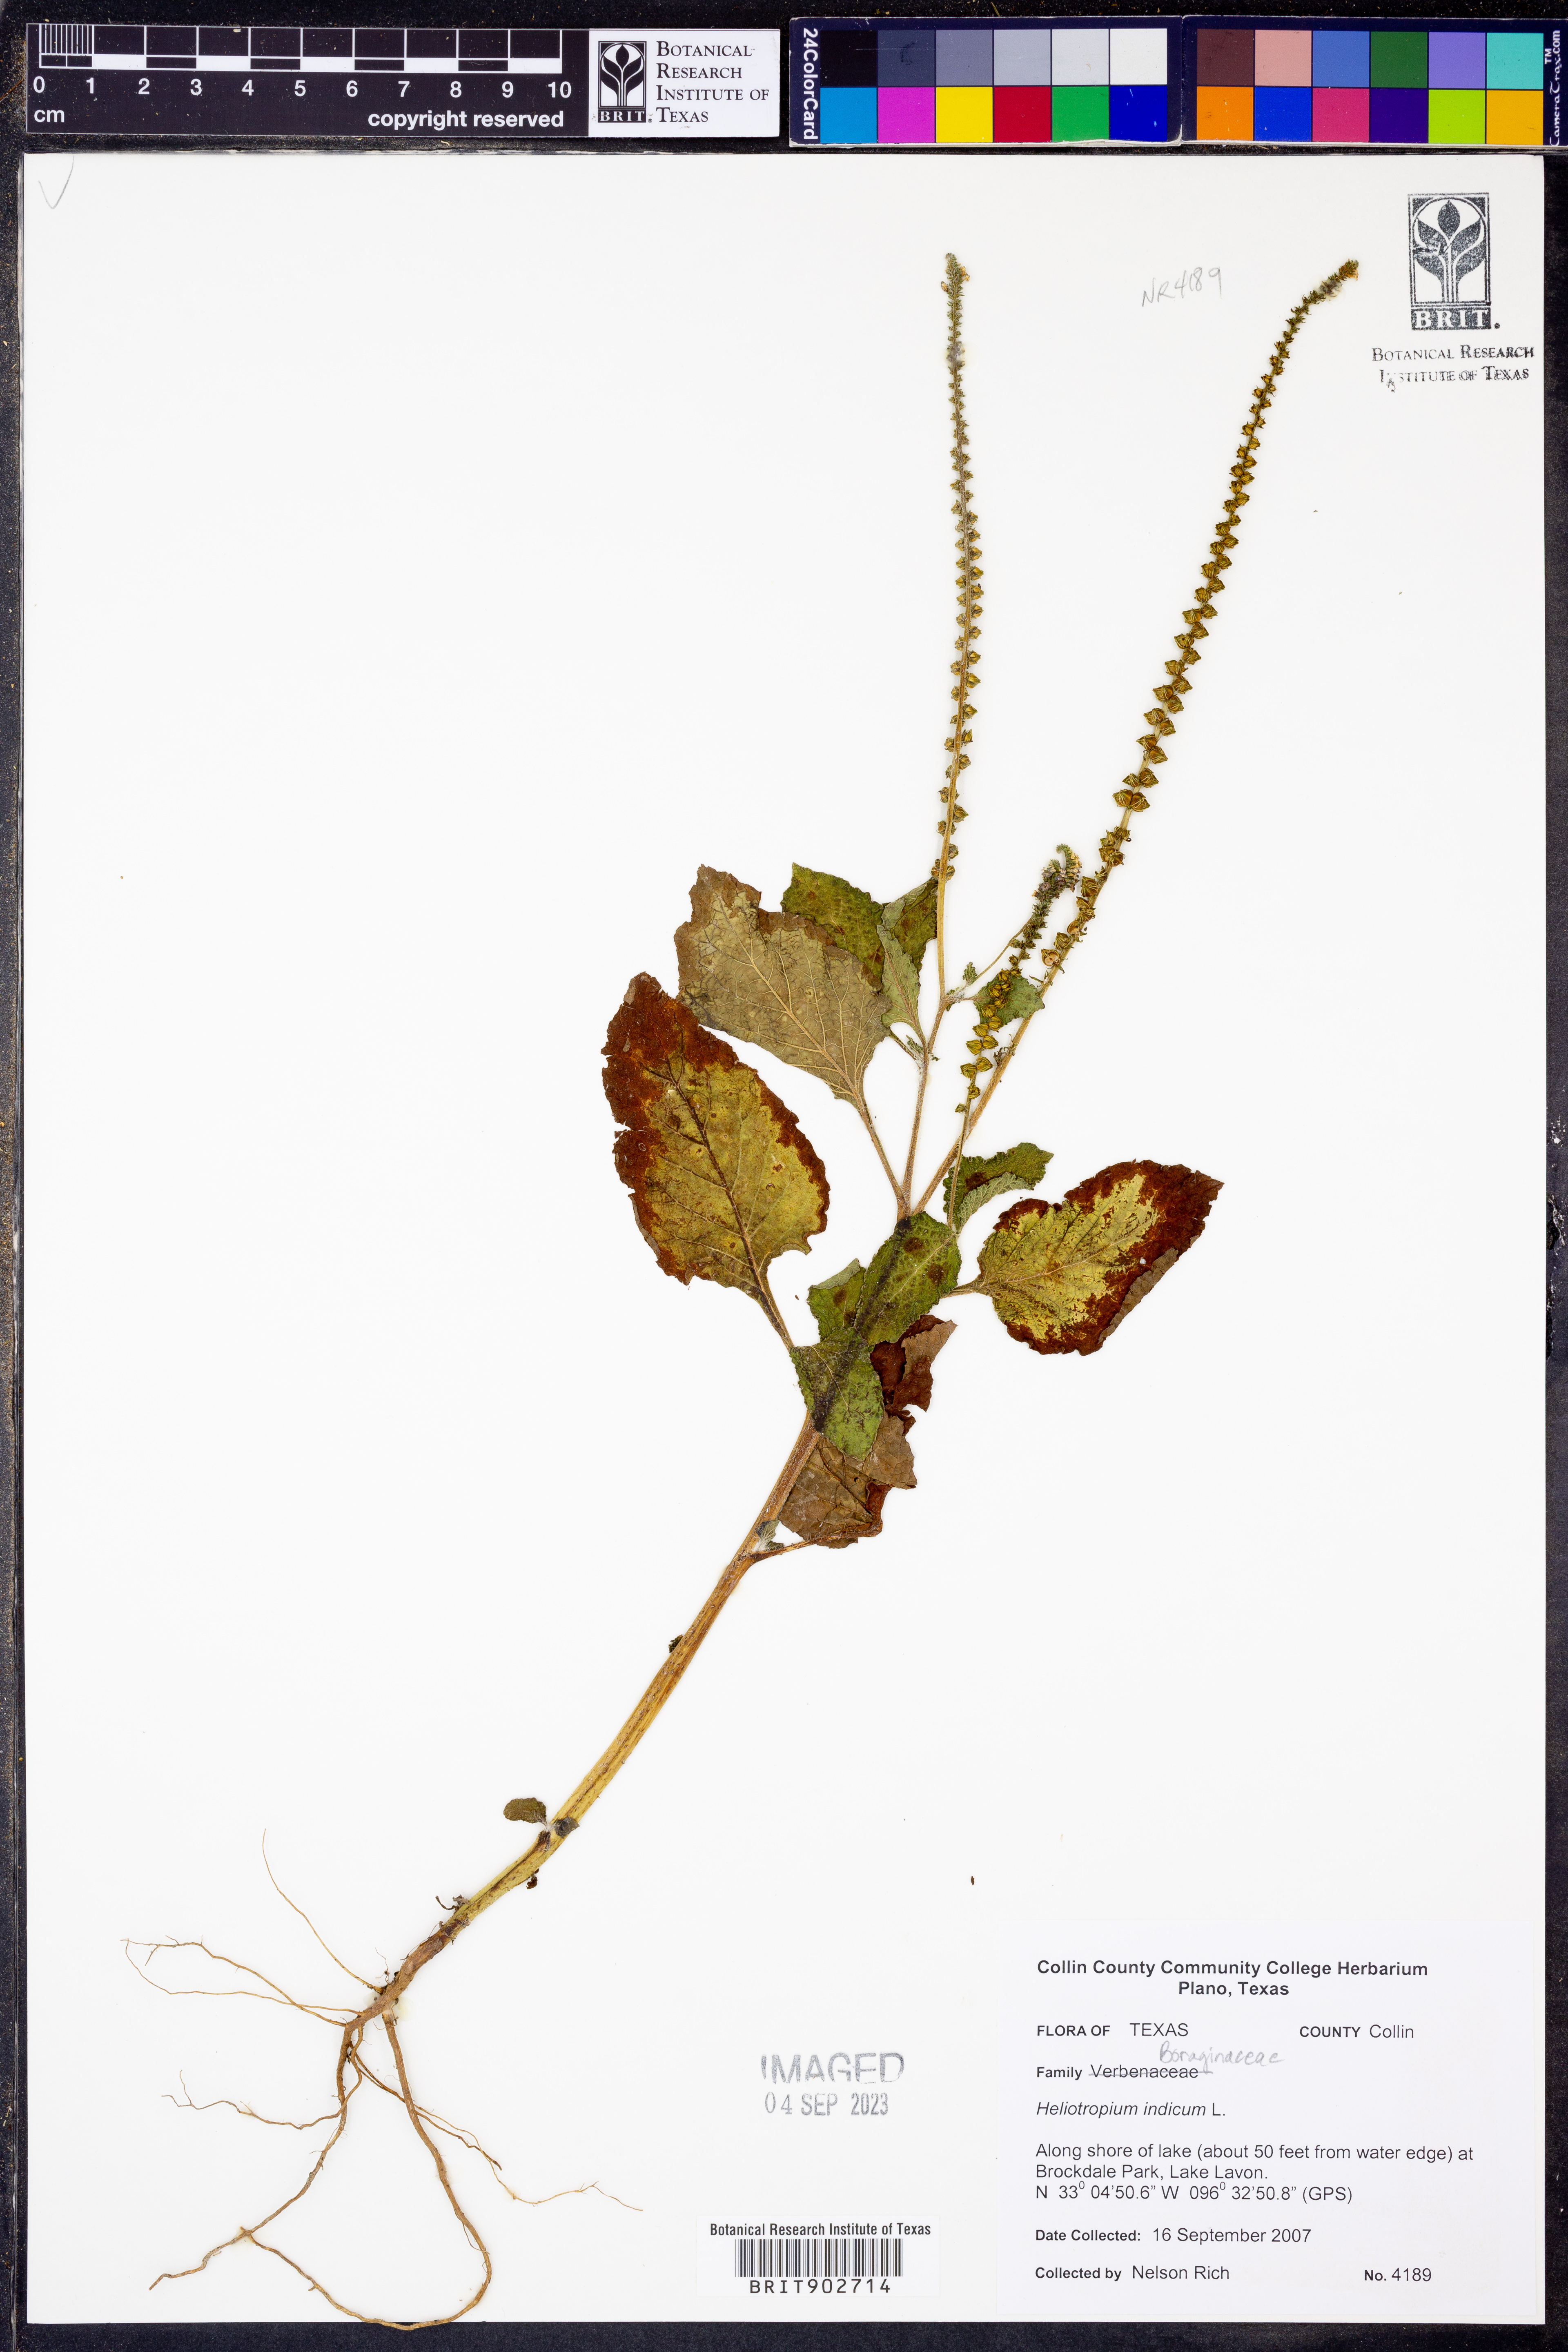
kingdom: Plantae
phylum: Tracheophyta
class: Magnoliopsida
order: Boraginales
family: Heliotropiaceae
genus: Heliotropium
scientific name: Heliotropium indicum
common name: Indian heliotrope
